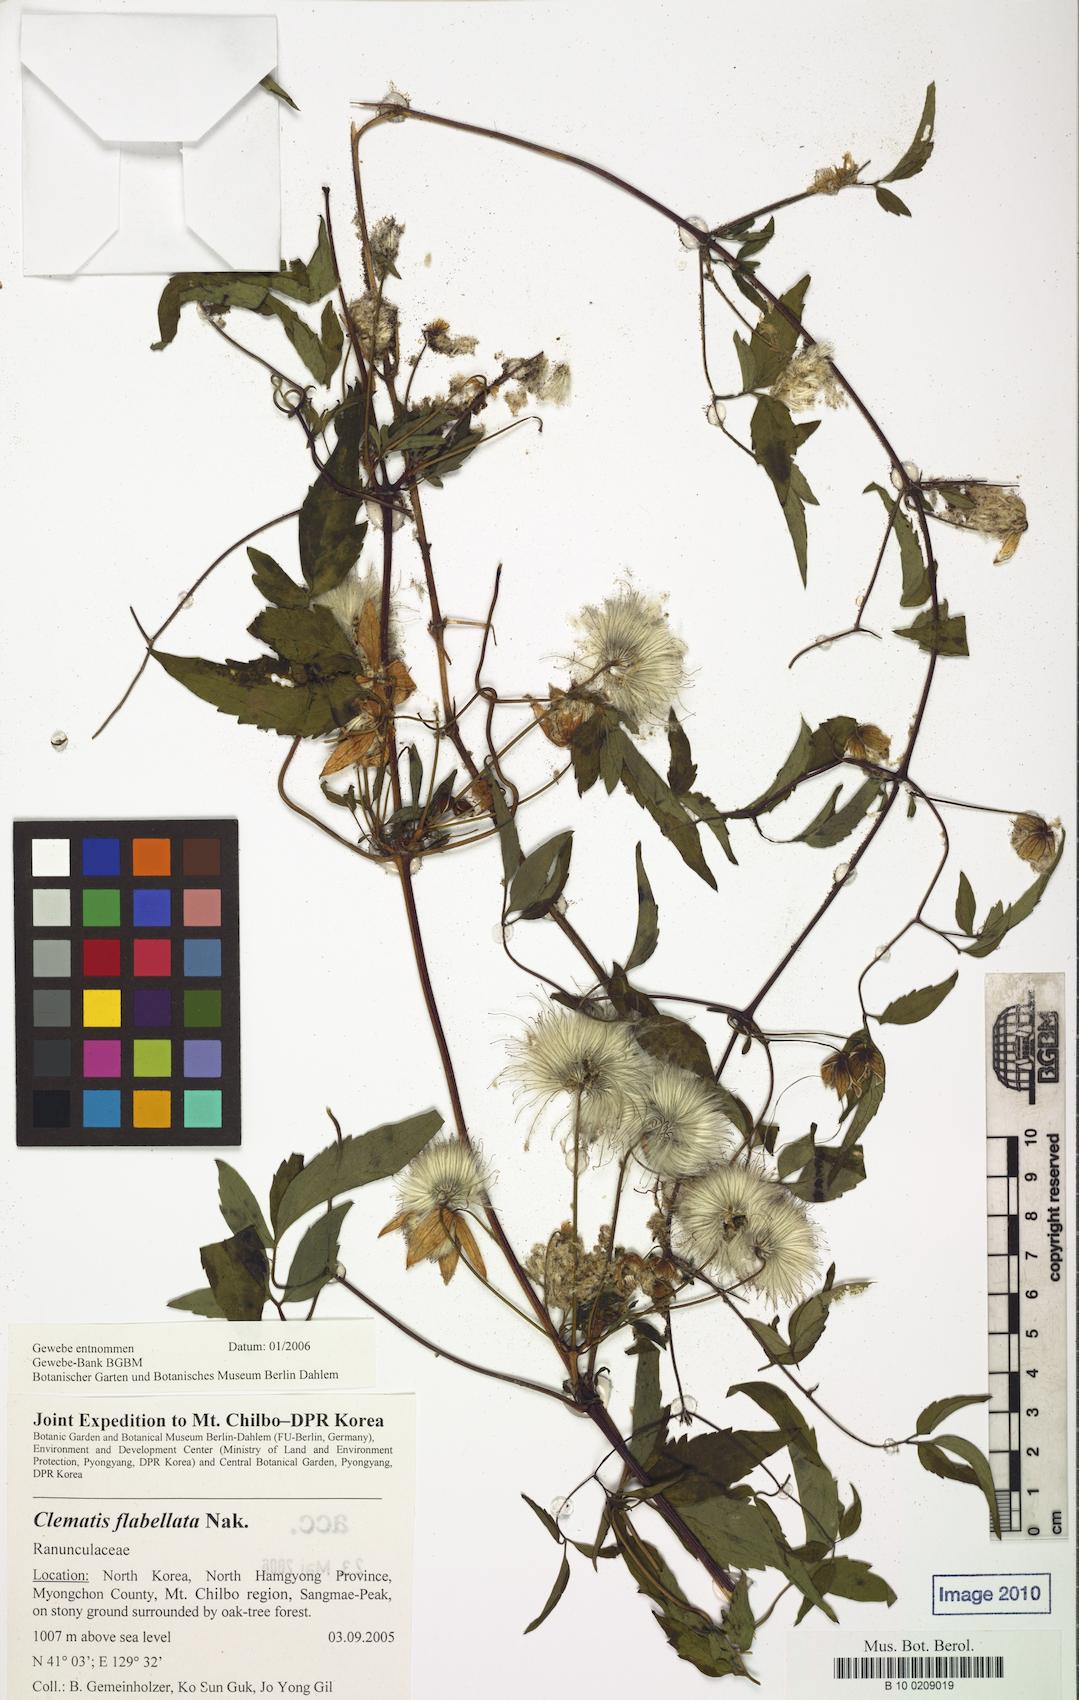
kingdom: Plantae
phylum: Tracheophyta
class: Magnoliopsida
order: Ranunculales
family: Ranunculaceae
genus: Clematis
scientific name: Clematis fusca
